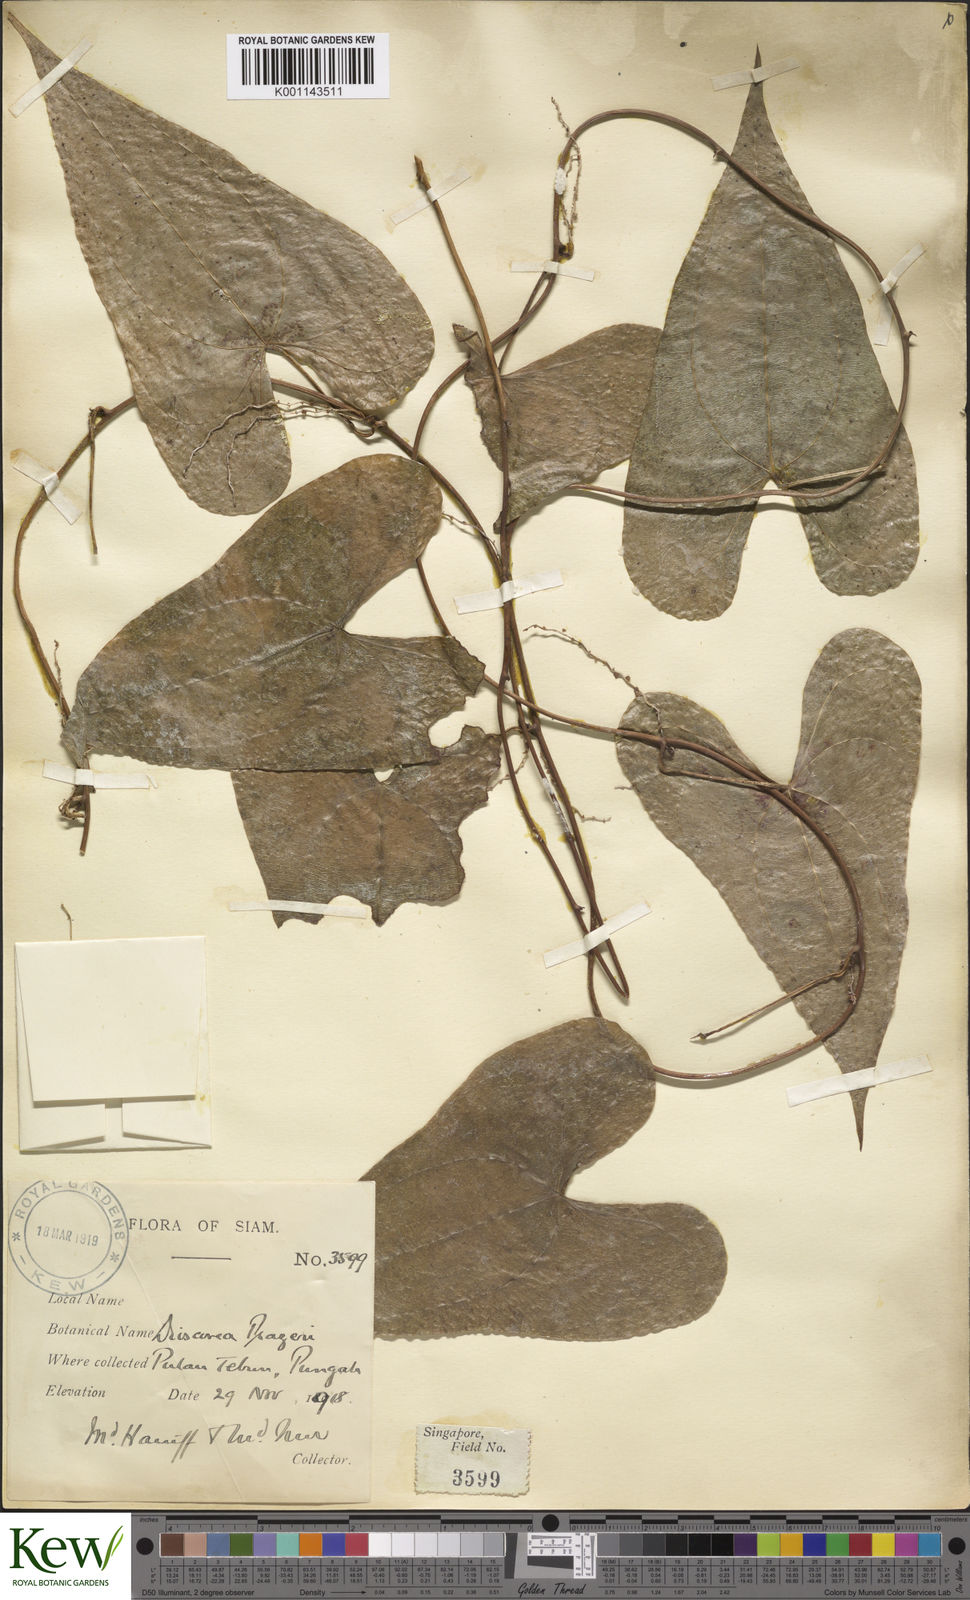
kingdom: Plantae
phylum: Tracheophyta
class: Liliopsida
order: Dioscoreales
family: Dioscoreaceae
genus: Dioscorea
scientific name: Dioscorea prazeri
